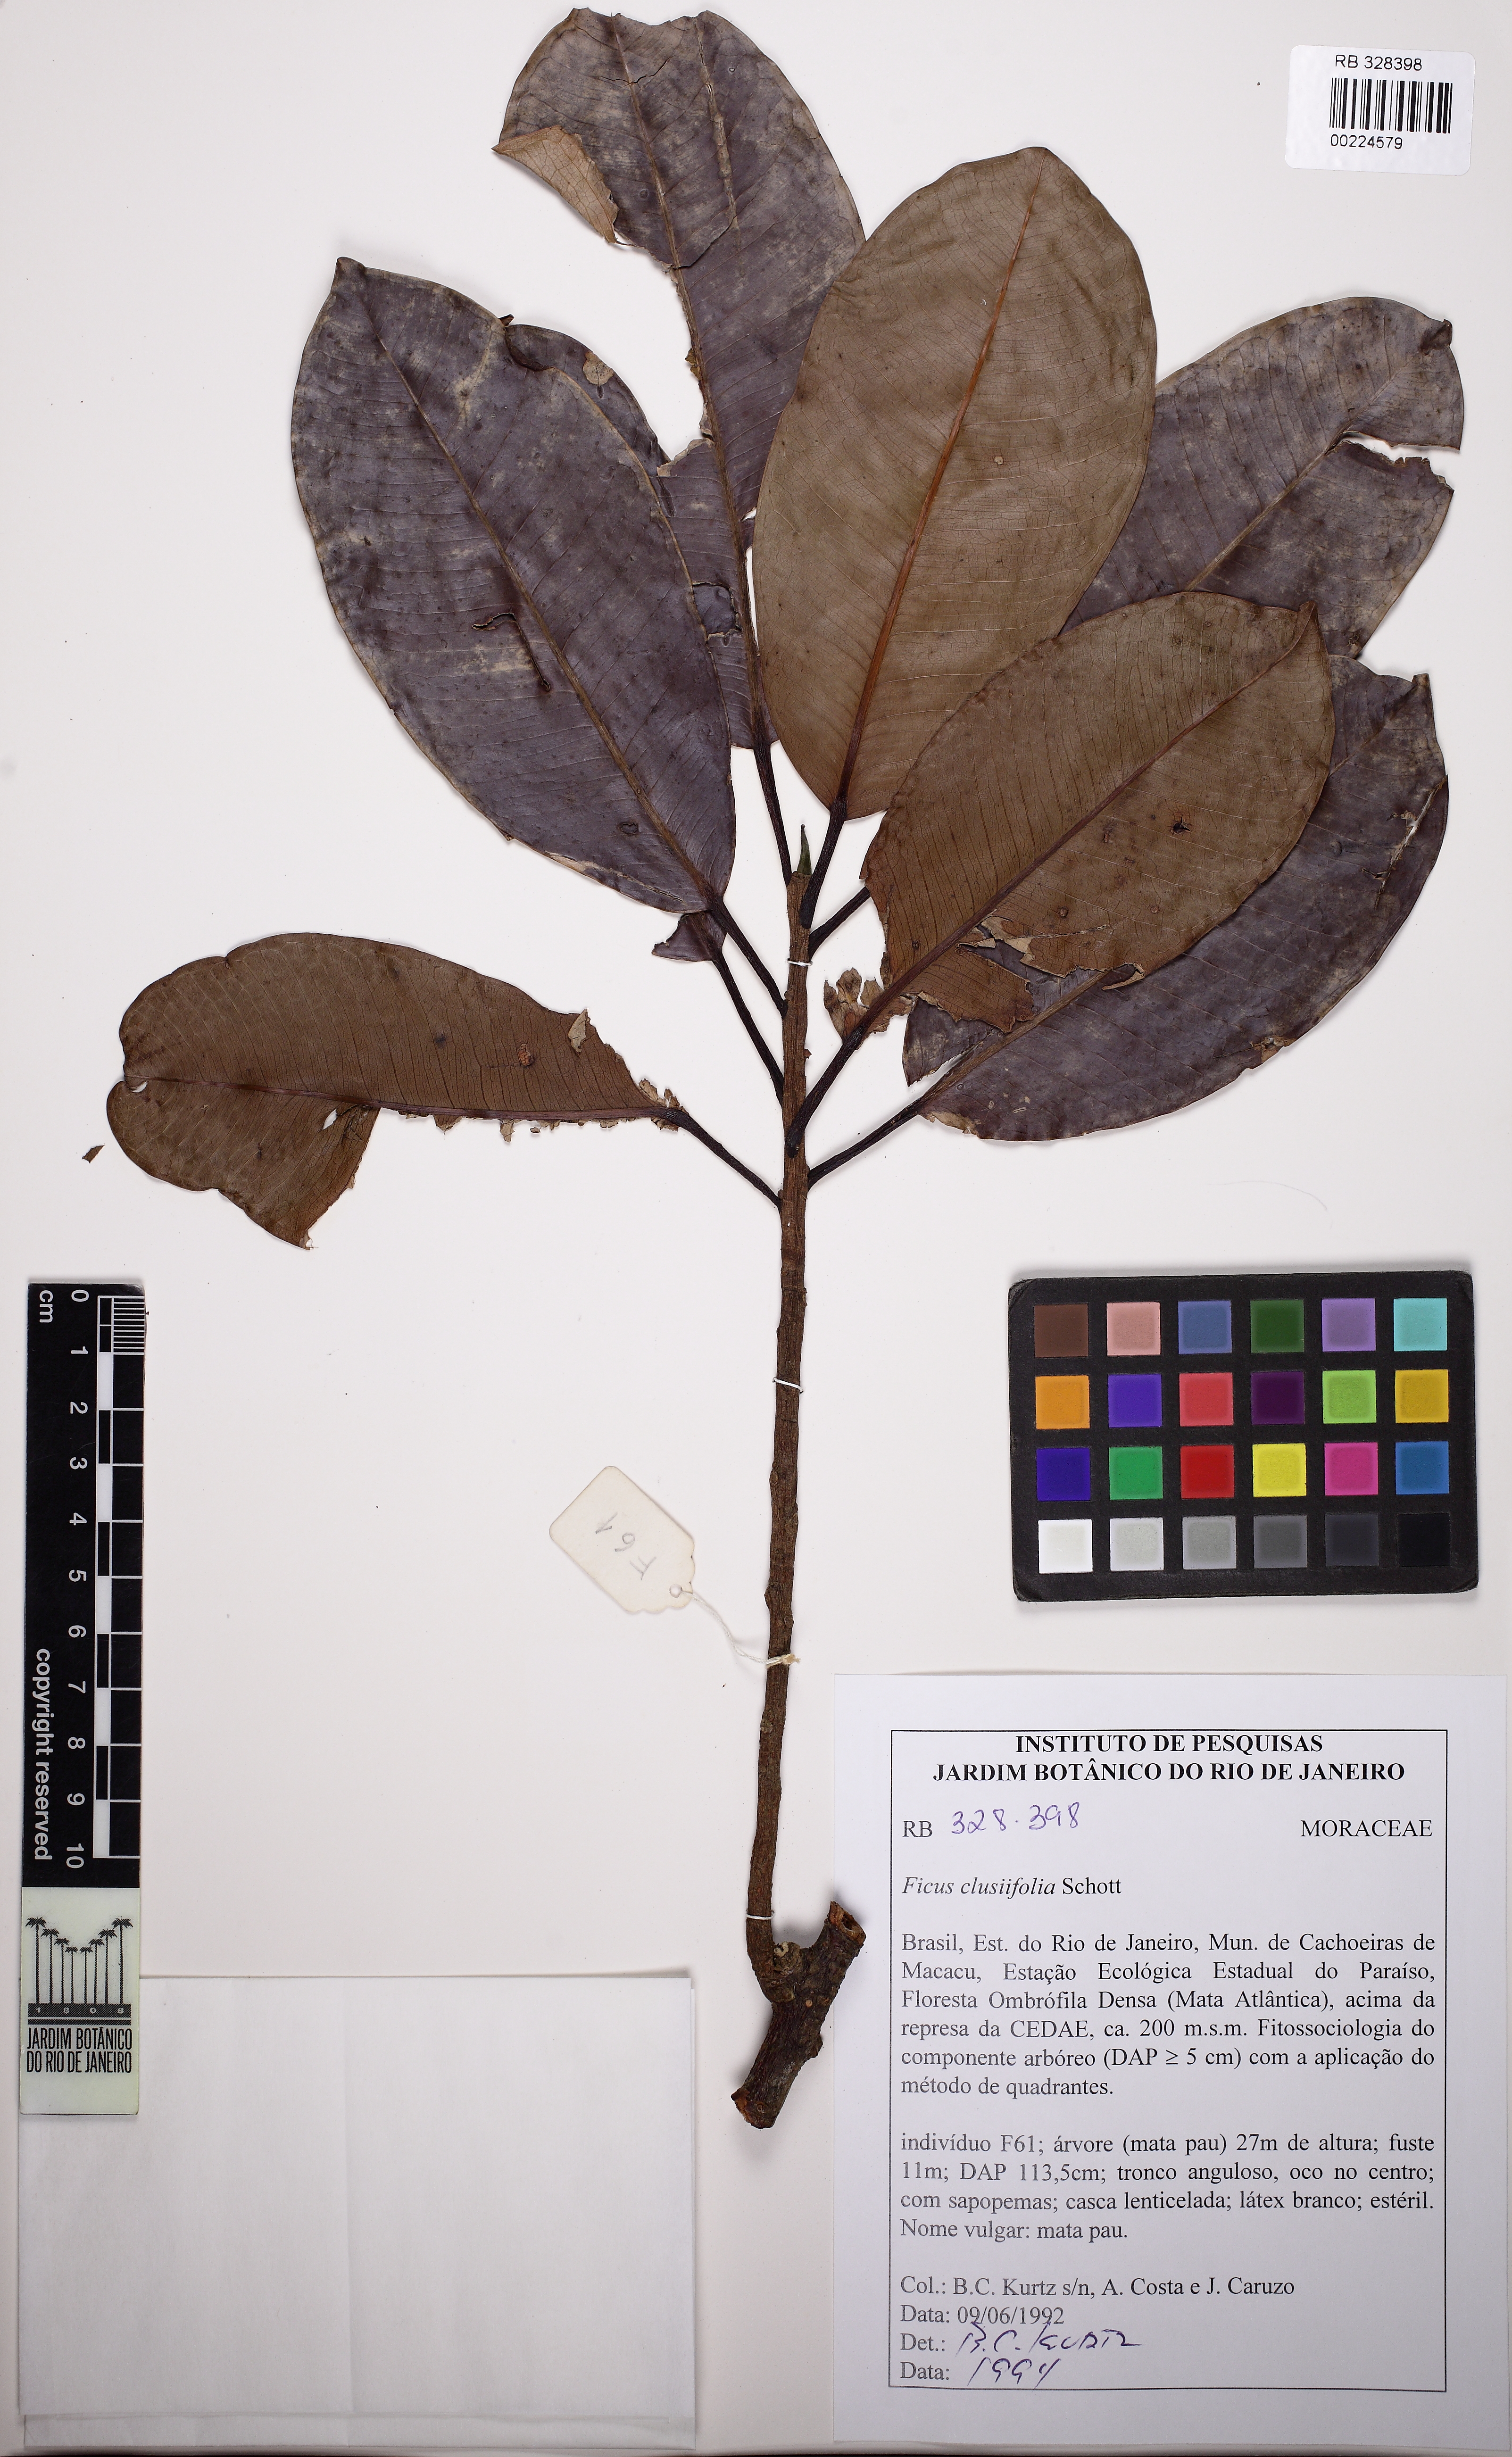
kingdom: Plantae
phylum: Tracheophyta
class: Magnoliopsida
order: Rosales
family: Moraceae
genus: Ficus
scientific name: Ficus americana
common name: Jamaican cherry fig
